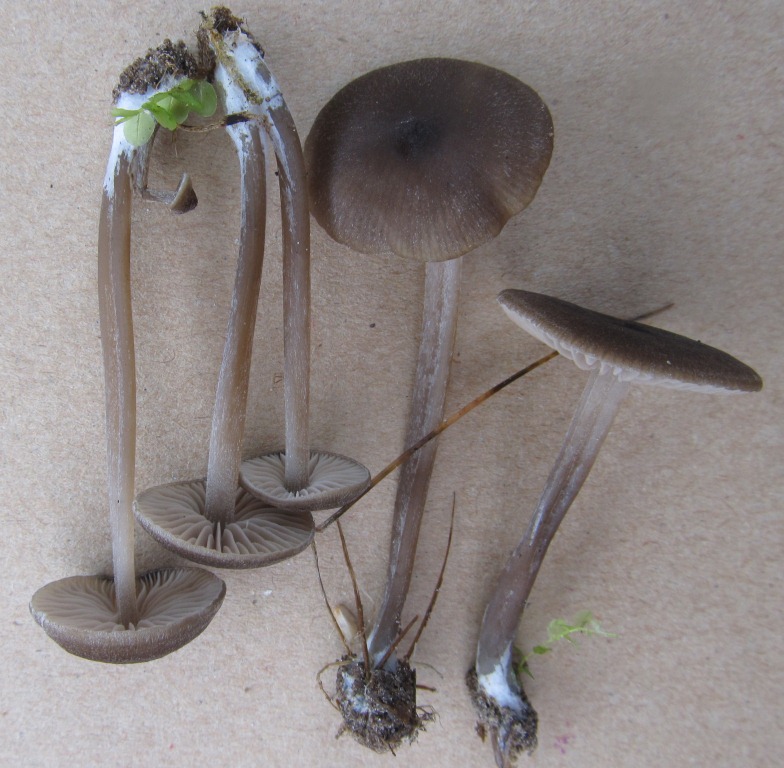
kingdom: Fungi
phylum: Basidiomycota
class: Agaricomycetes
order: Agaricales
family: Entolomataceae
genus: Entoloma
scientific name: Entoloma clandestinum
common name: tykbladet rødblad
